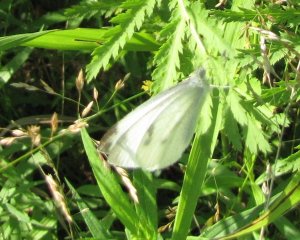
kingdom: Animalia
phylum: Arthropoda
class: Insecta
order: Lepidoptera
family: Pieridae
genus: Pieris
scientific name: Pieris rapae
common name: Cabbage White
